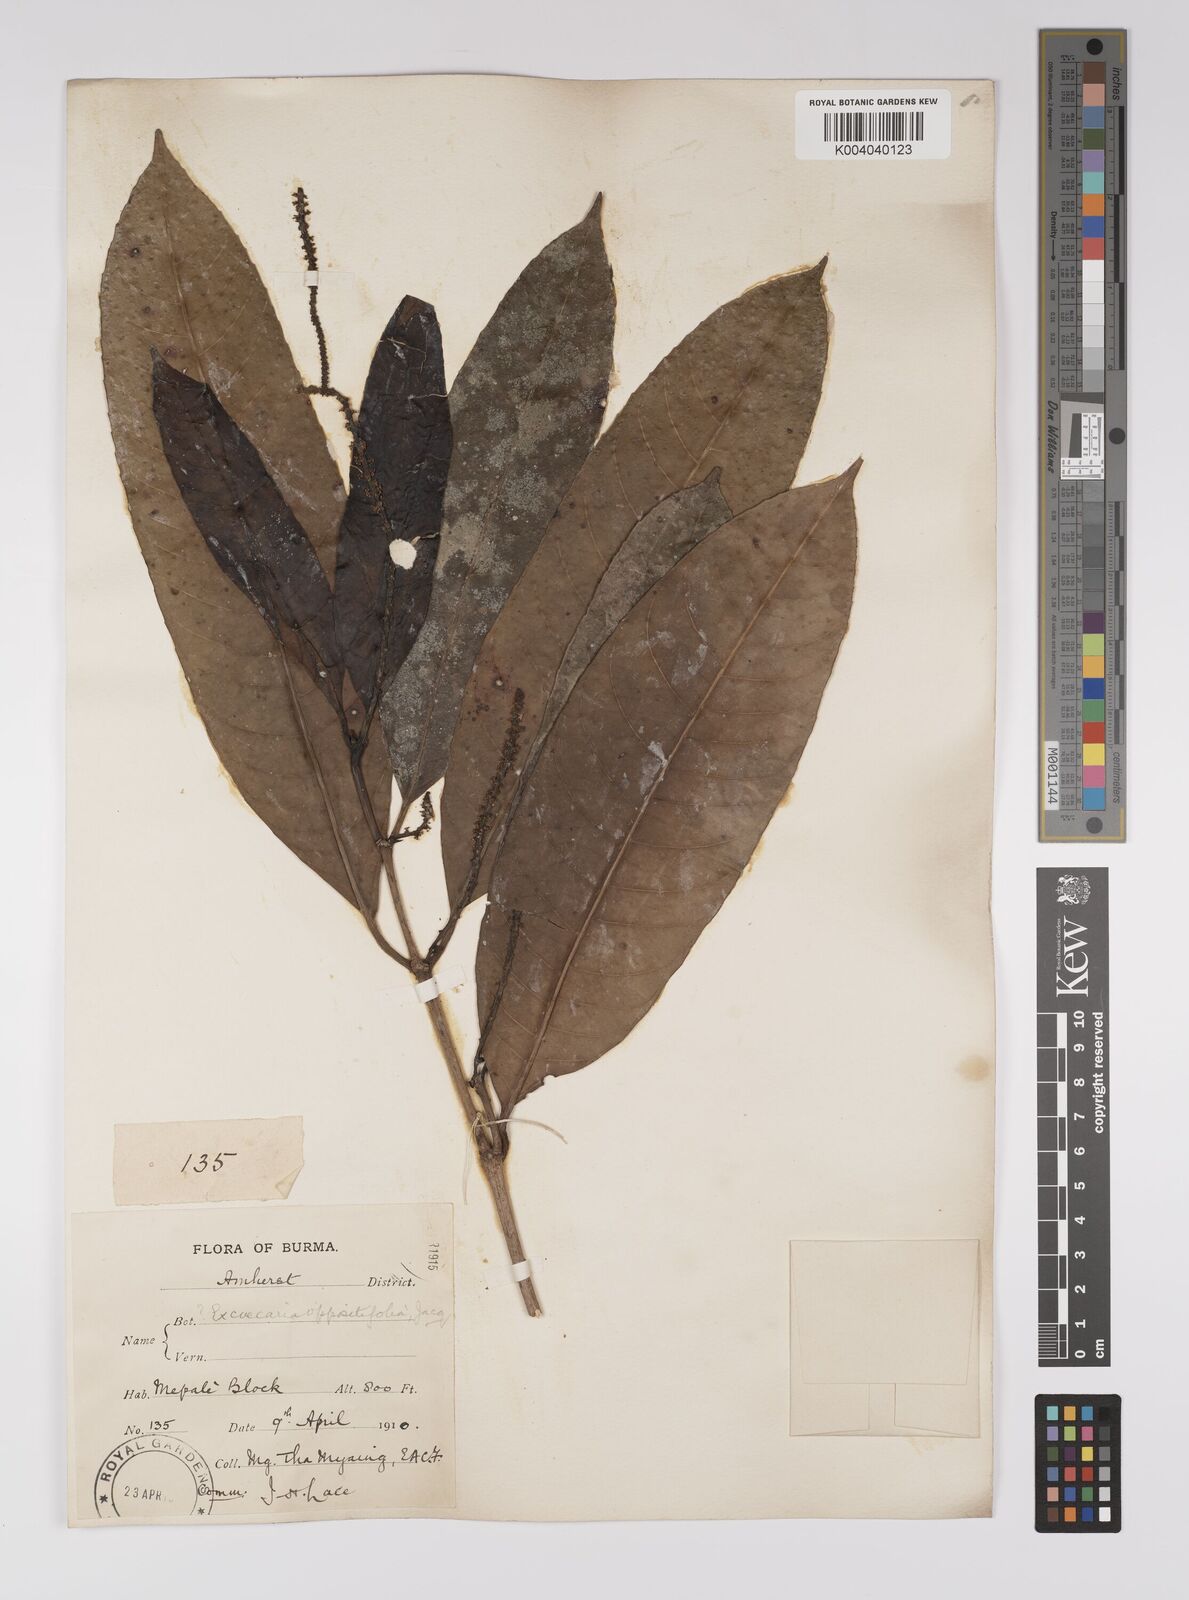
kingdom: Plantae
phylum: Tracheophyta
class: Magnoliopsida
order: Malpighiales
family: Euphorbiaceae
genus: Excoecaria
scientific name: Excoecaria oppositifolia
